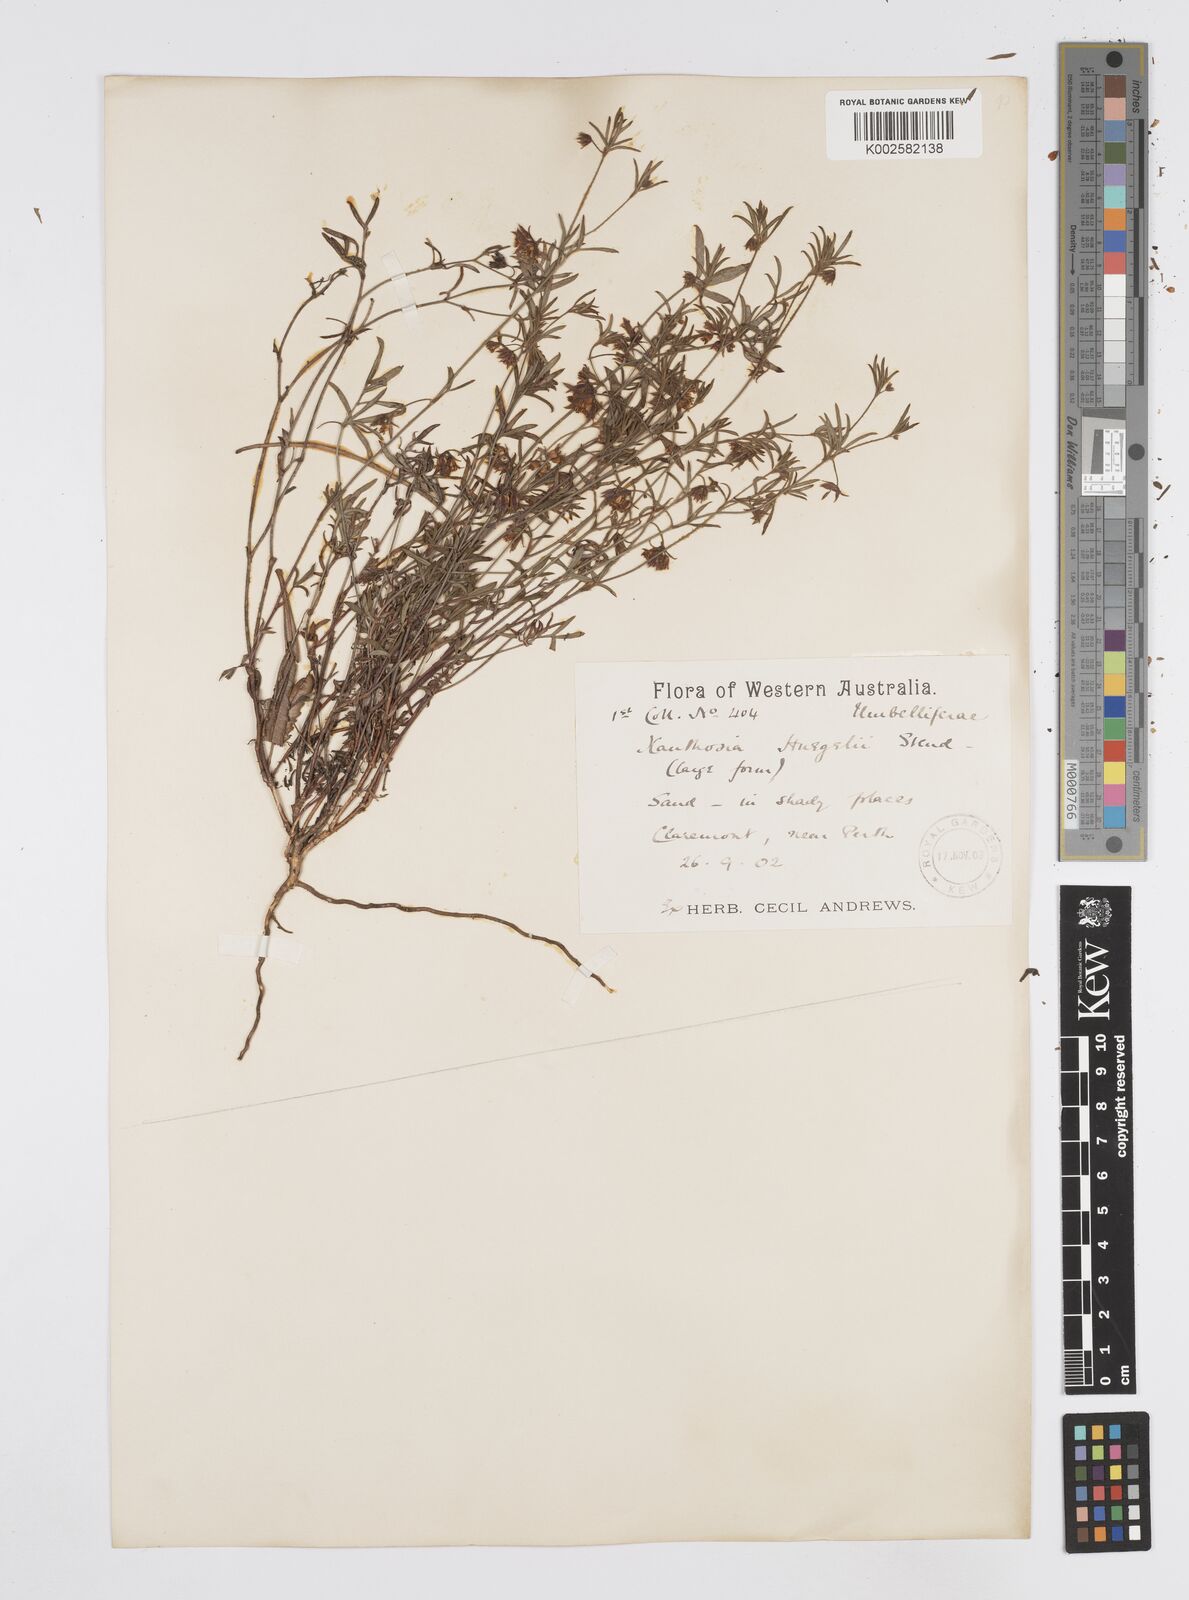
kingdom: Plantae
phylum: Tracheophyta
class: Magnoliopsida
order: Apiales
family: Apiaceae
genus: Xanthosia
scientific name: Xanthosia huegelii
